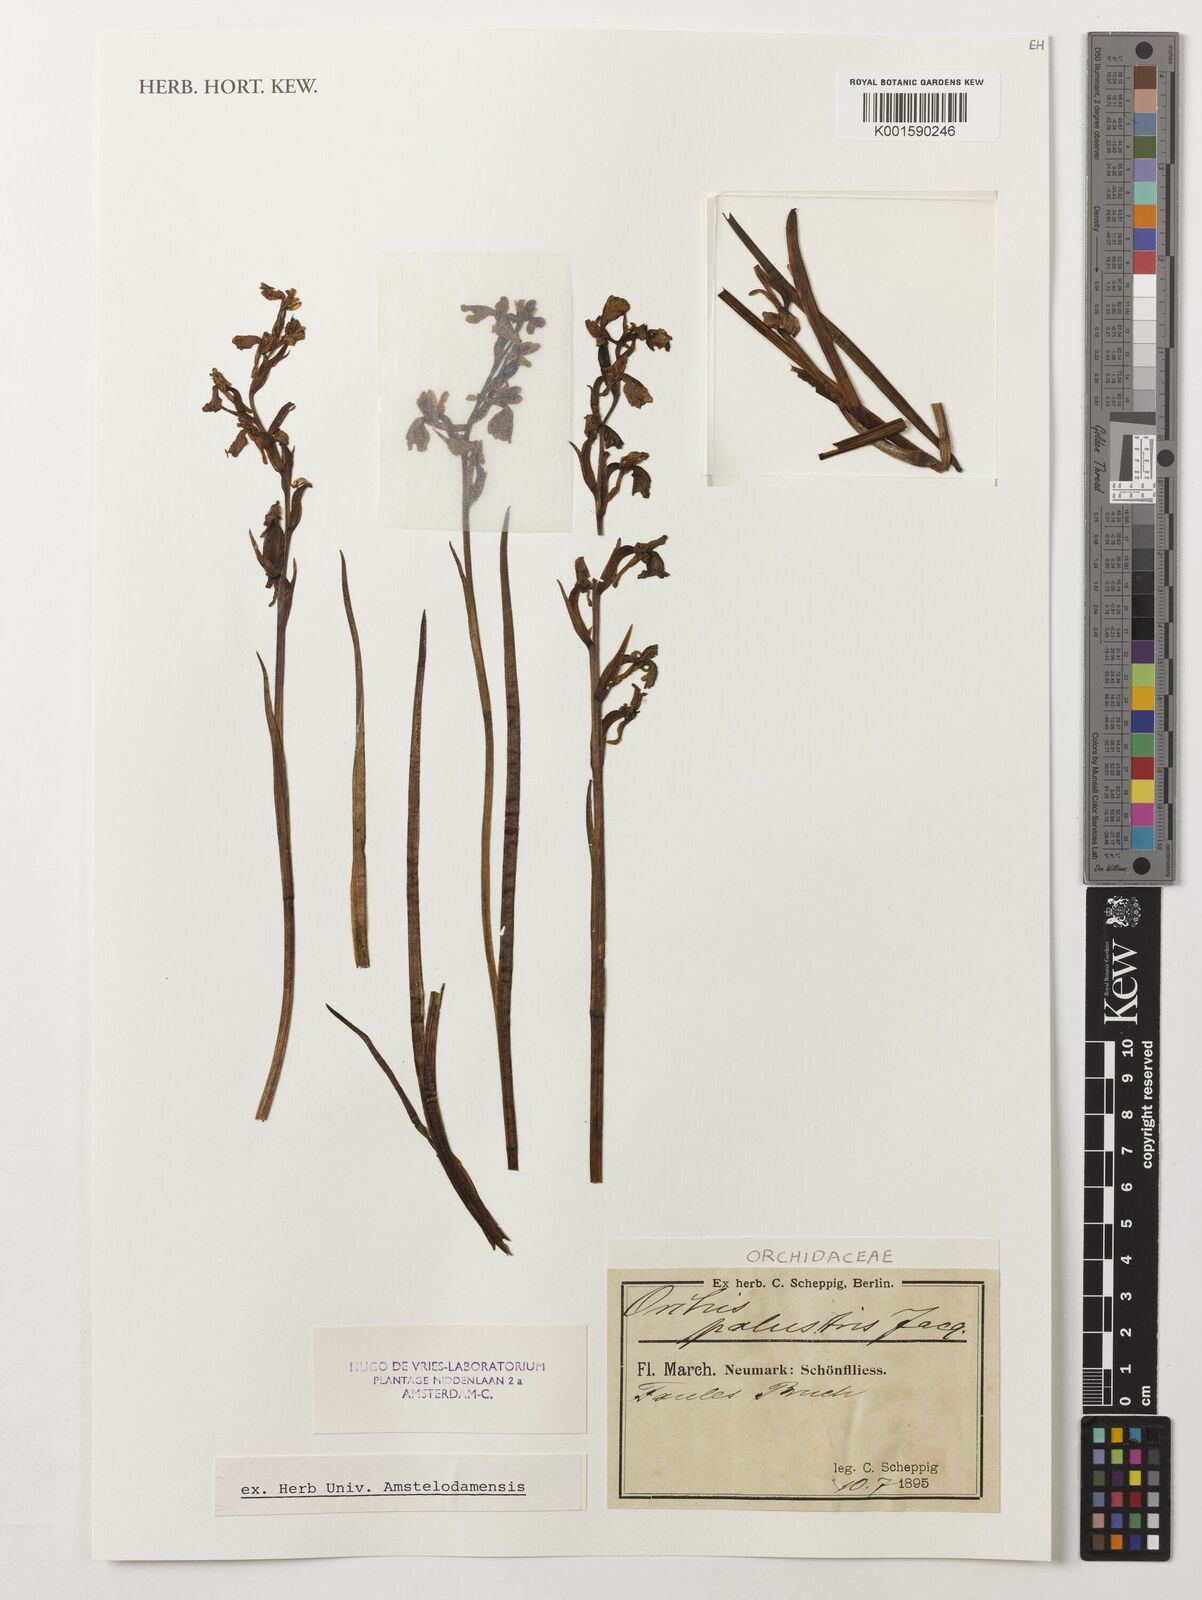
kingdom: Plantae
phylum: Tracheophyta
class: Liliopsida
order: Asparagales
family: Orchidaceae
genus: Anacamptis
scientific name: Anacamptis palustris
